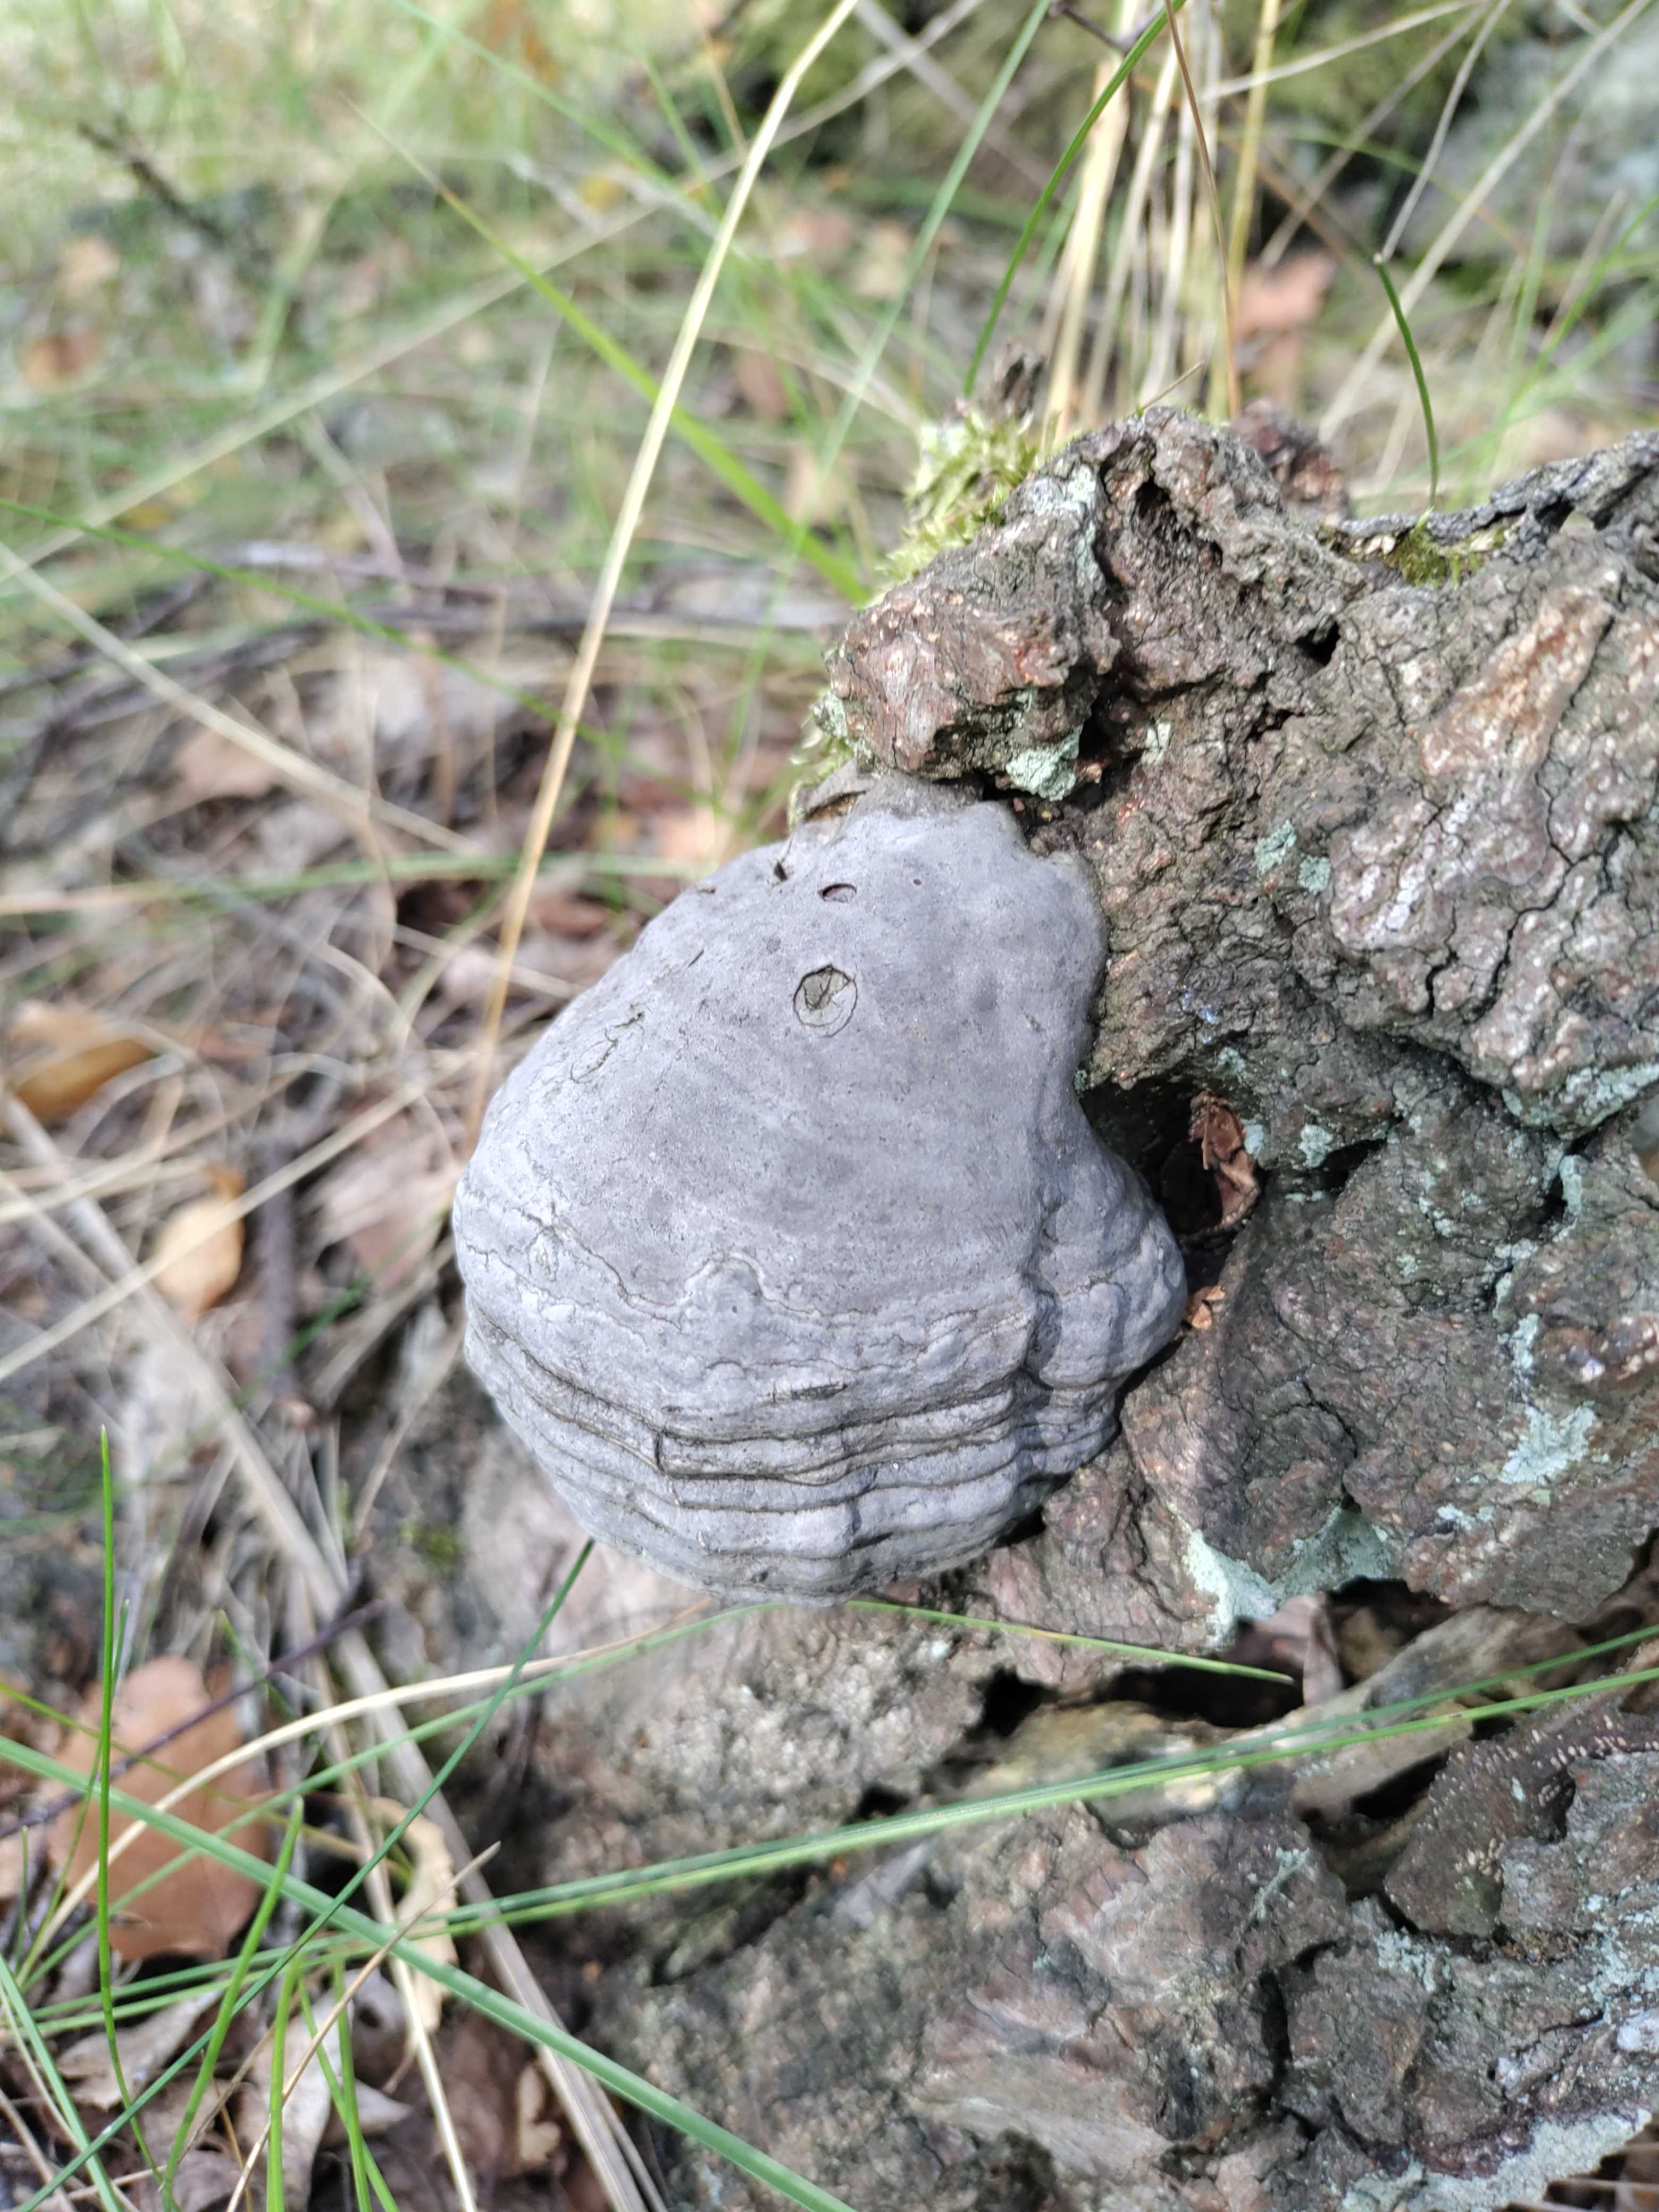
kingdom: Fungi
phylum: Basidiomycota
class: Agaricomycetes
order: Polyporales
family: Polyporaceae
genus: Fomes
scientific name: Fomes fomentarius
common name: tøndersvamp
